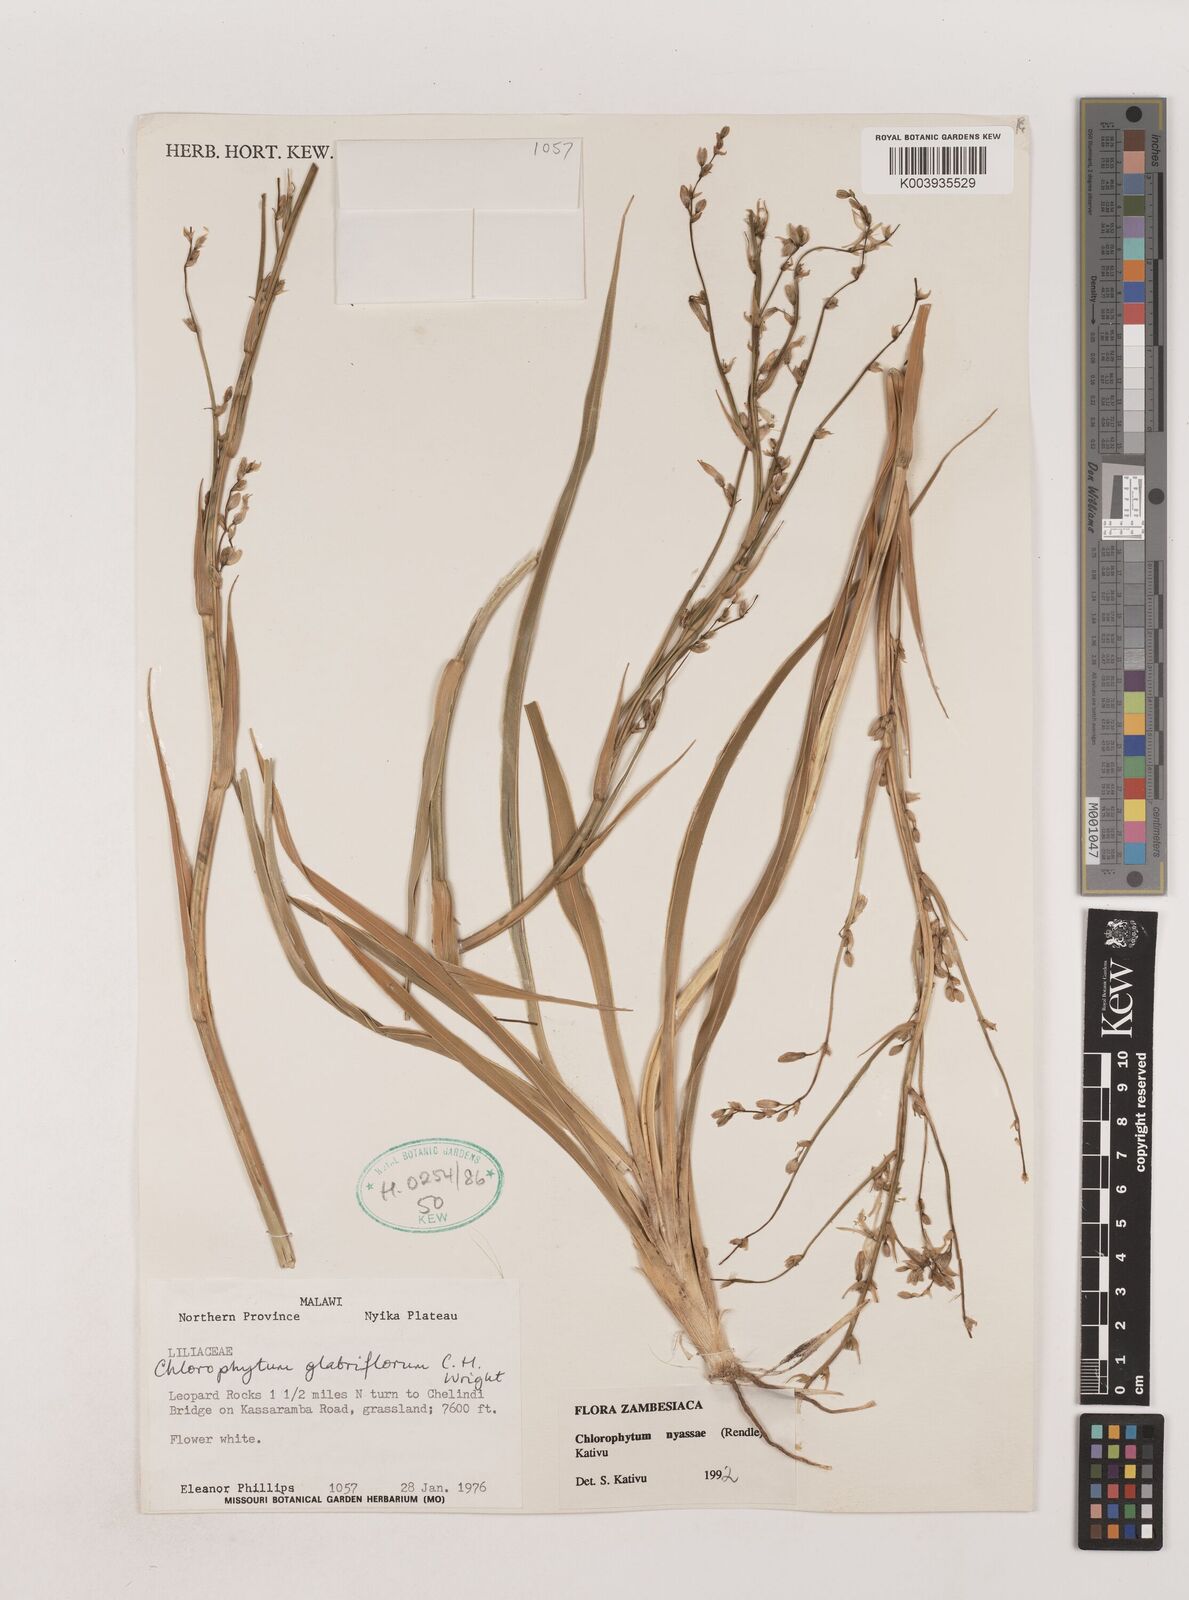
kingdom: Plantae
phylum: Tracheophyta
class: Liliopsida
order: Asparagales
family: Asparagaceae
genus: Chlorophytum
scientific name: Chlorophytum nyasae
